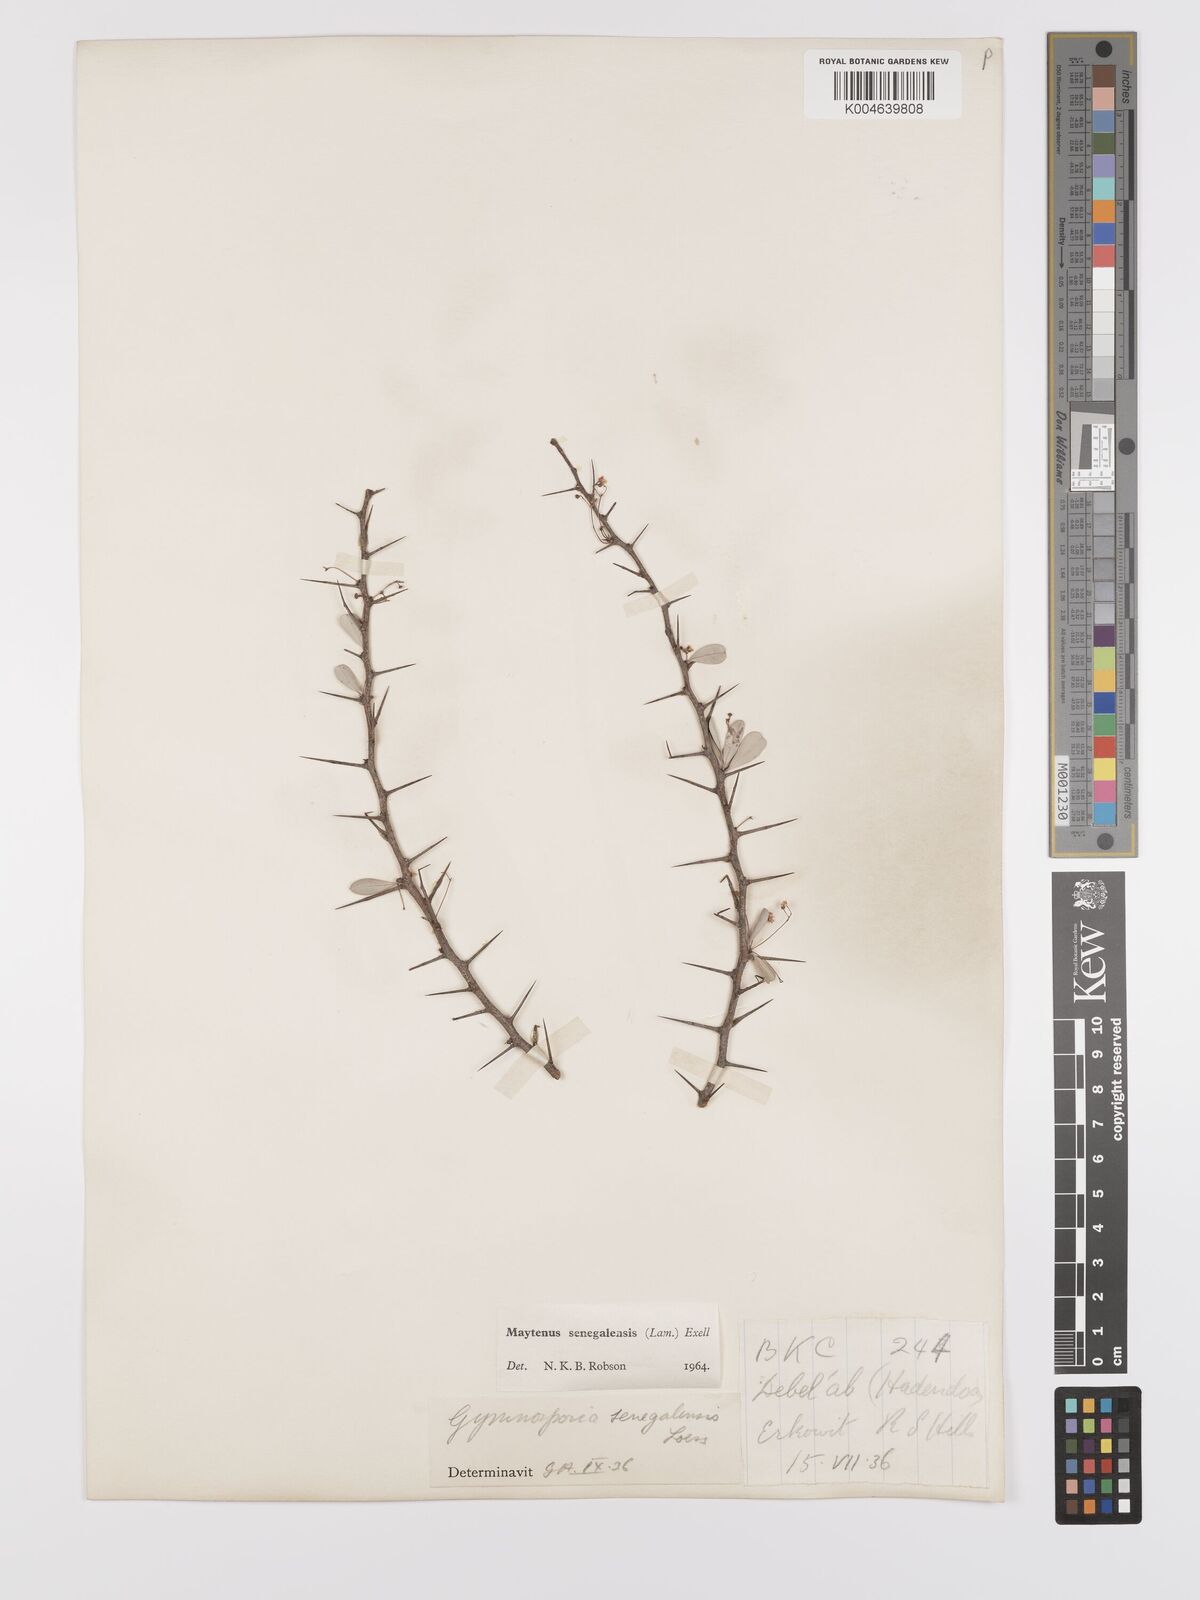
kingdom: Plantae
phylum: Tracheophyta
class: Magnoliopsida
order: Celastrales
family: Celastraceae
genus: Gymnosporia
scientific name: Gymnosporia senegalensis
